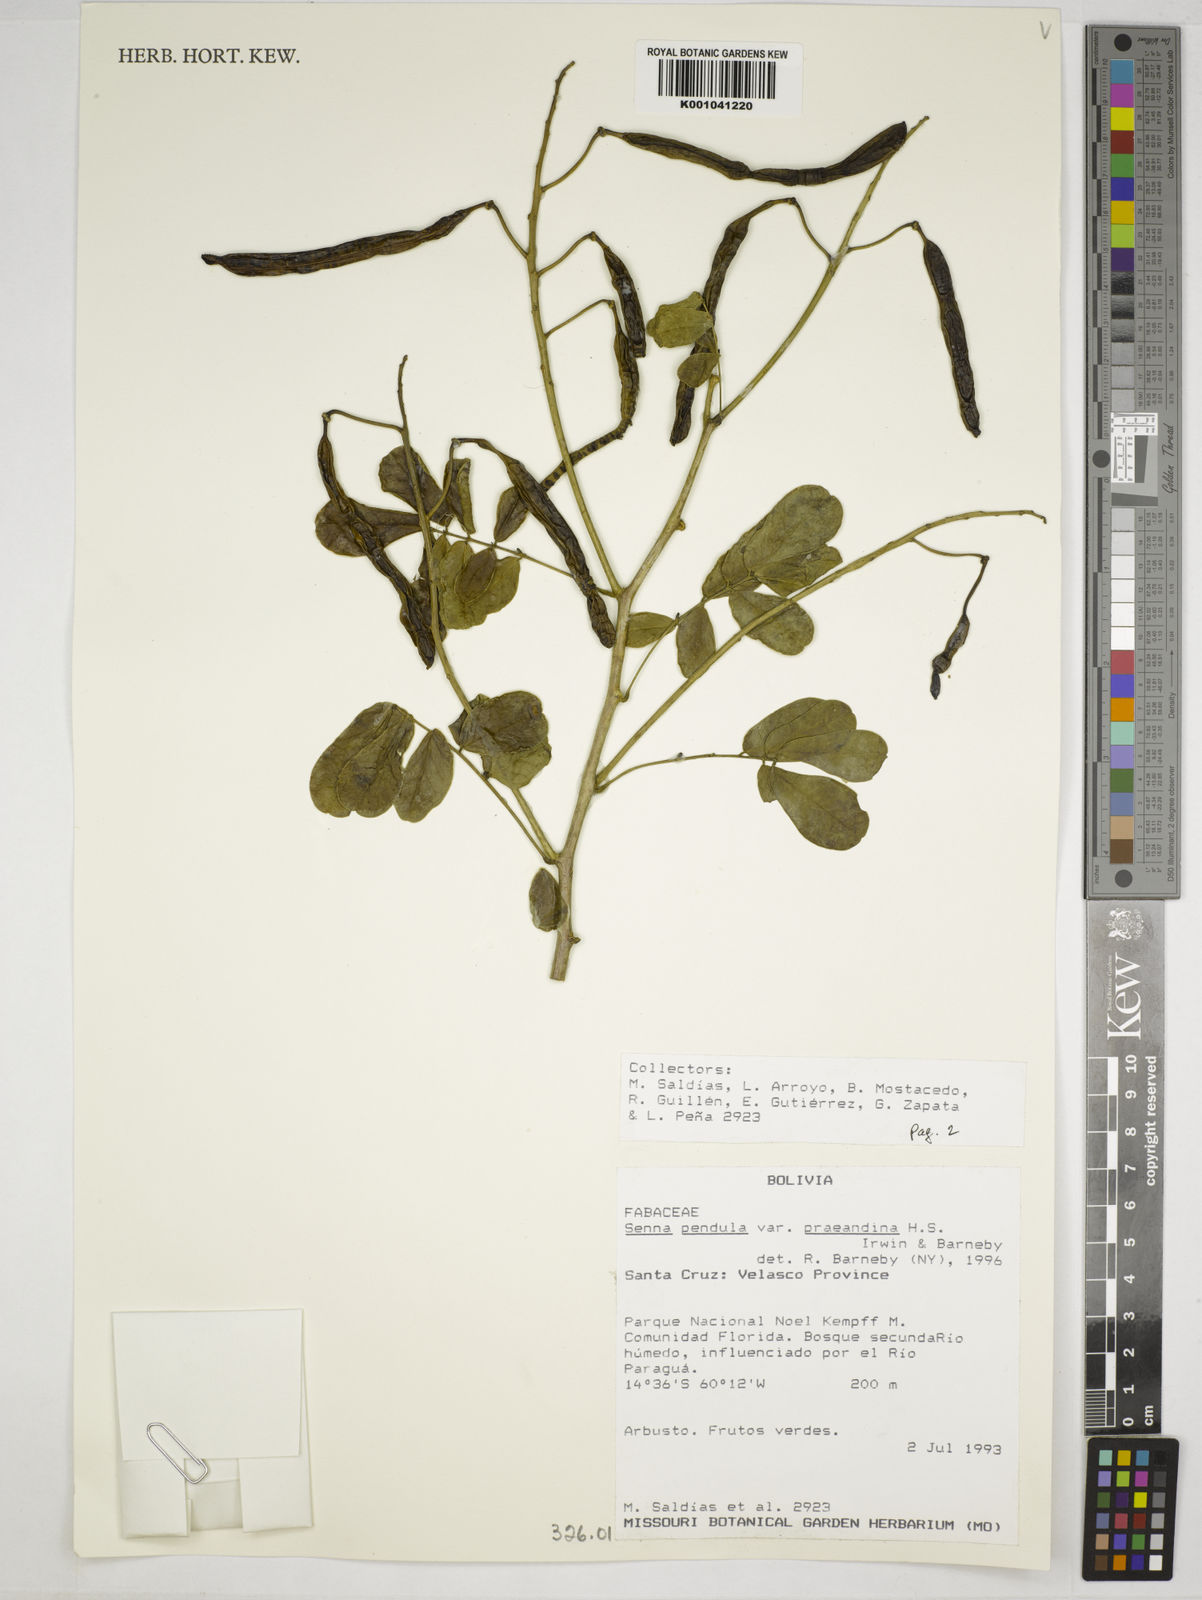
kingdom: Plantae
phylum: Tracheophyta
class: Magnoliopsida
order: Fabales
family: Fabaceae
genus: Senna
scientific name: Senna pendula
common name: Easter cassia
